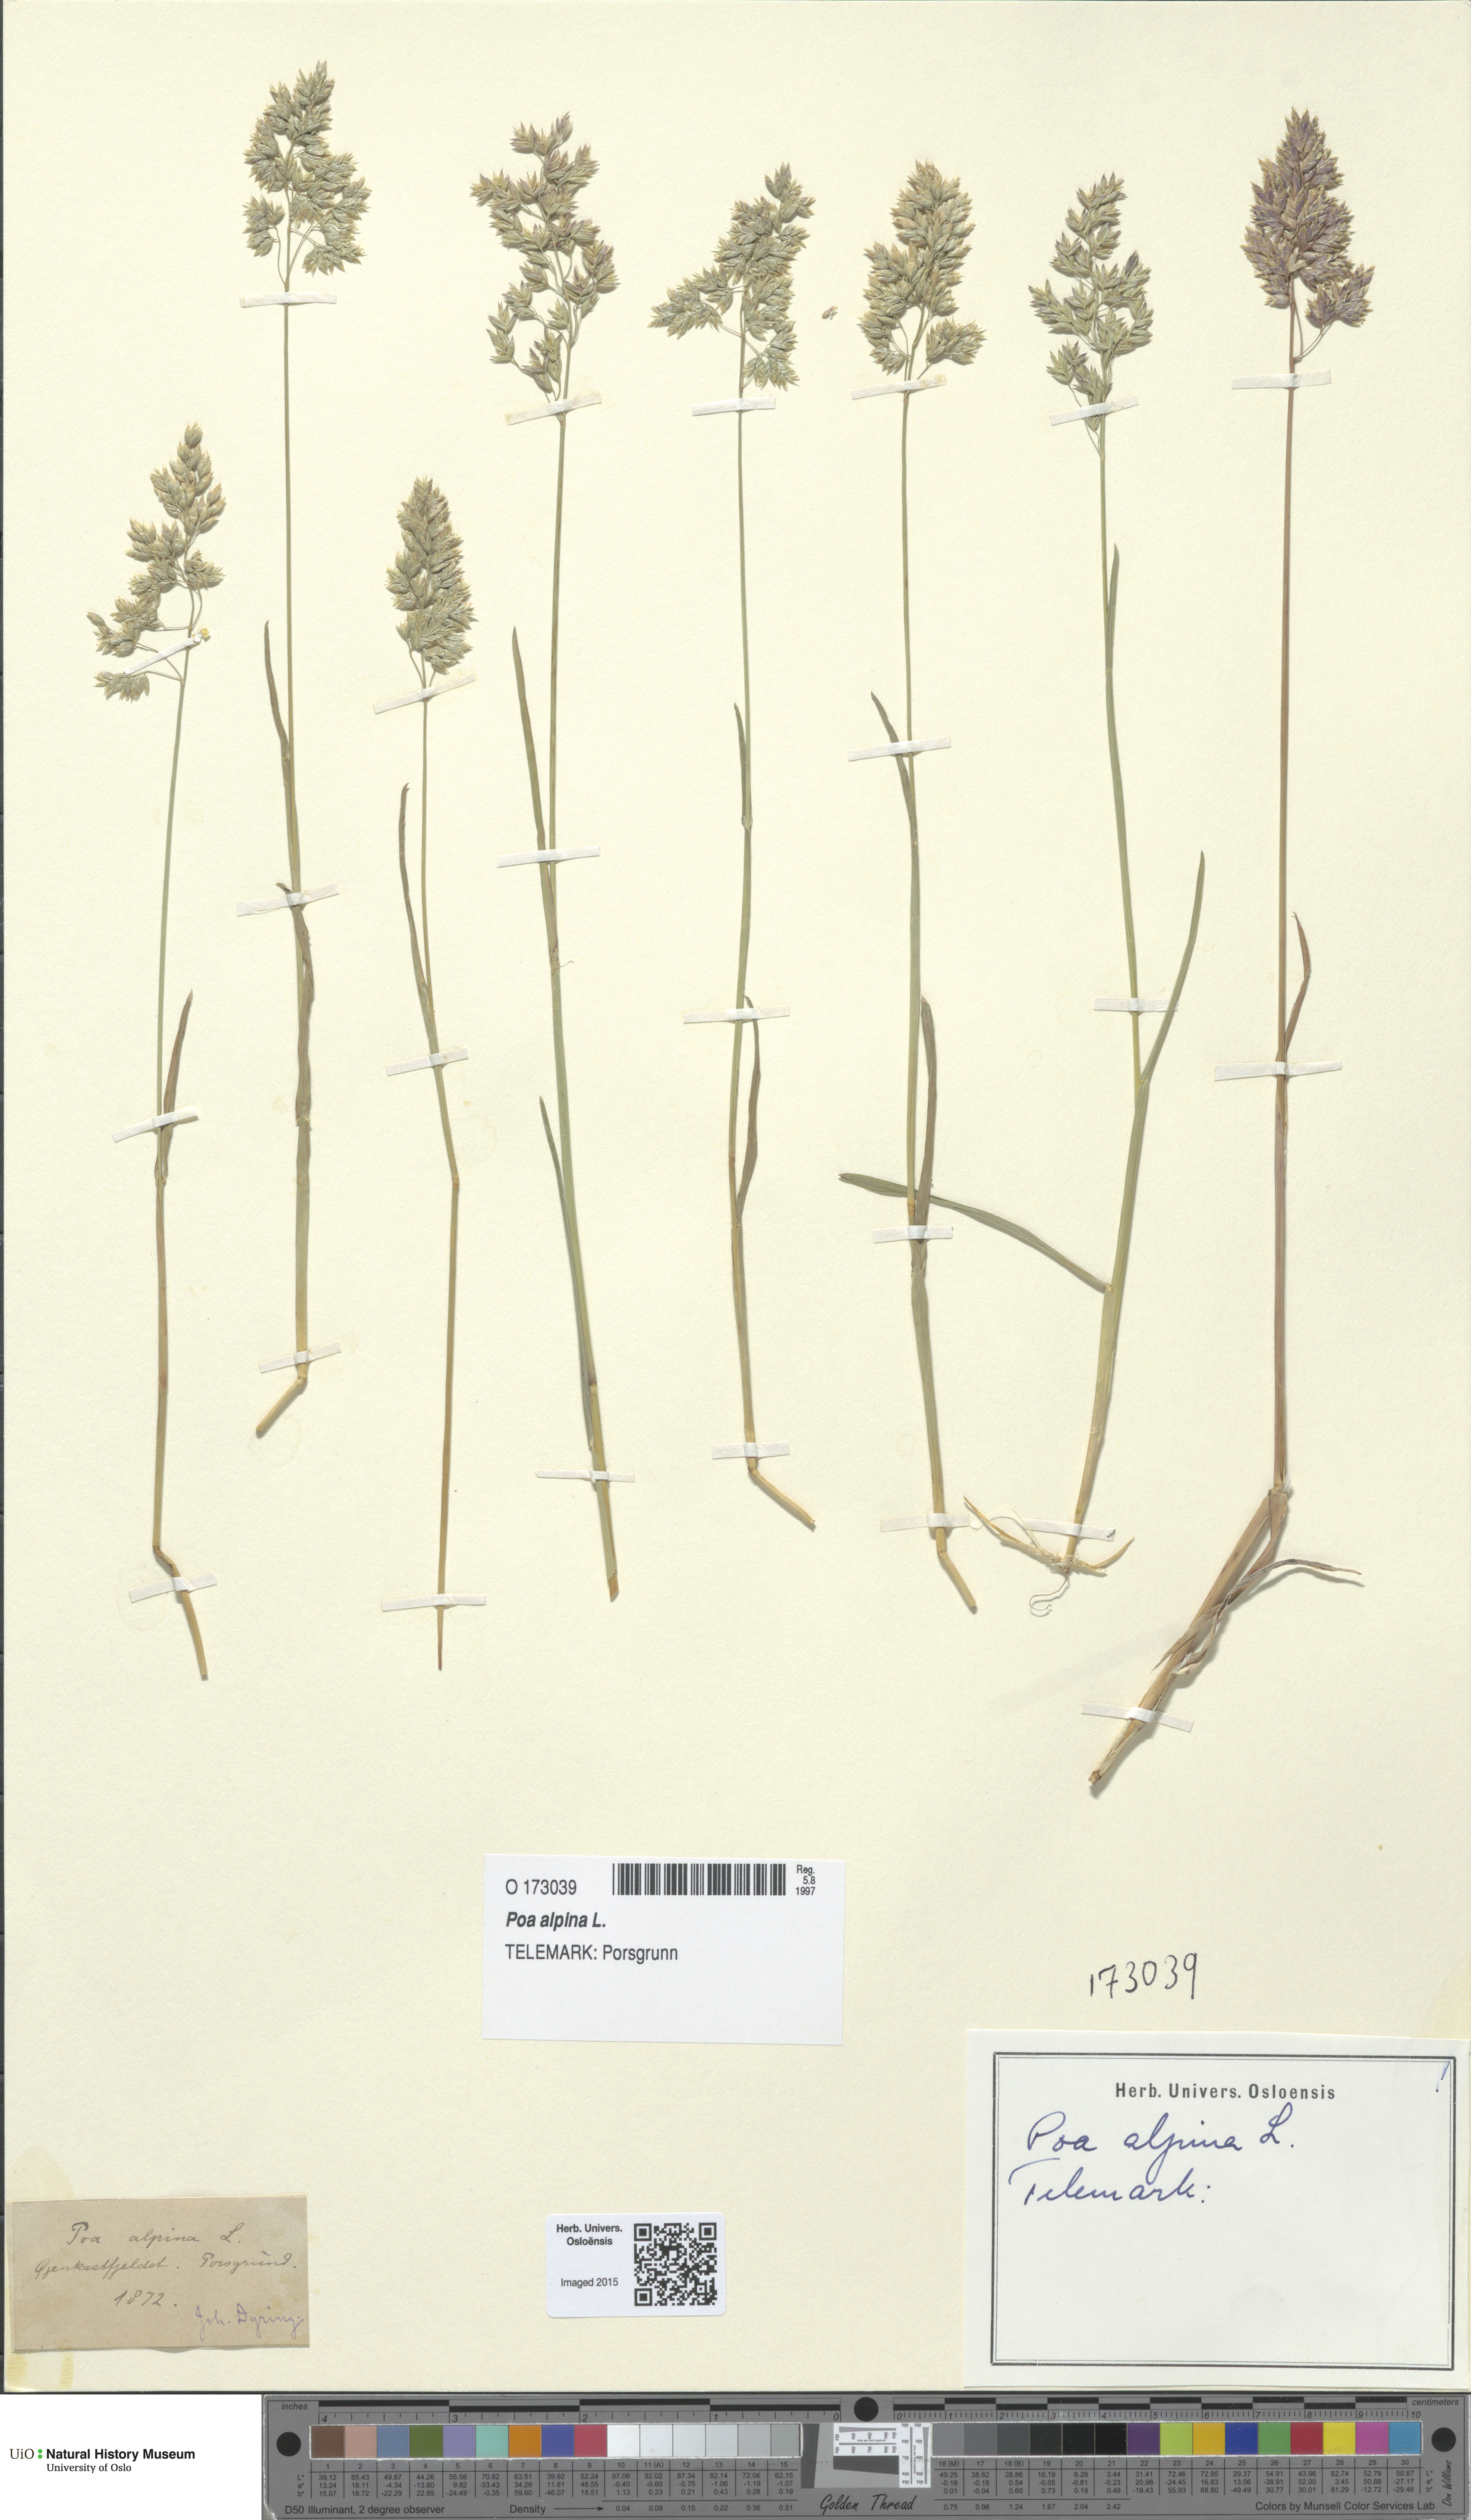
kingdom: Plantae
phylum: Tracheophyta
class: Liliopsida
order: Poales
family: Poaceae
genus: Poa
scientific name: Poa alpina
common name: Alpine bluegrass
